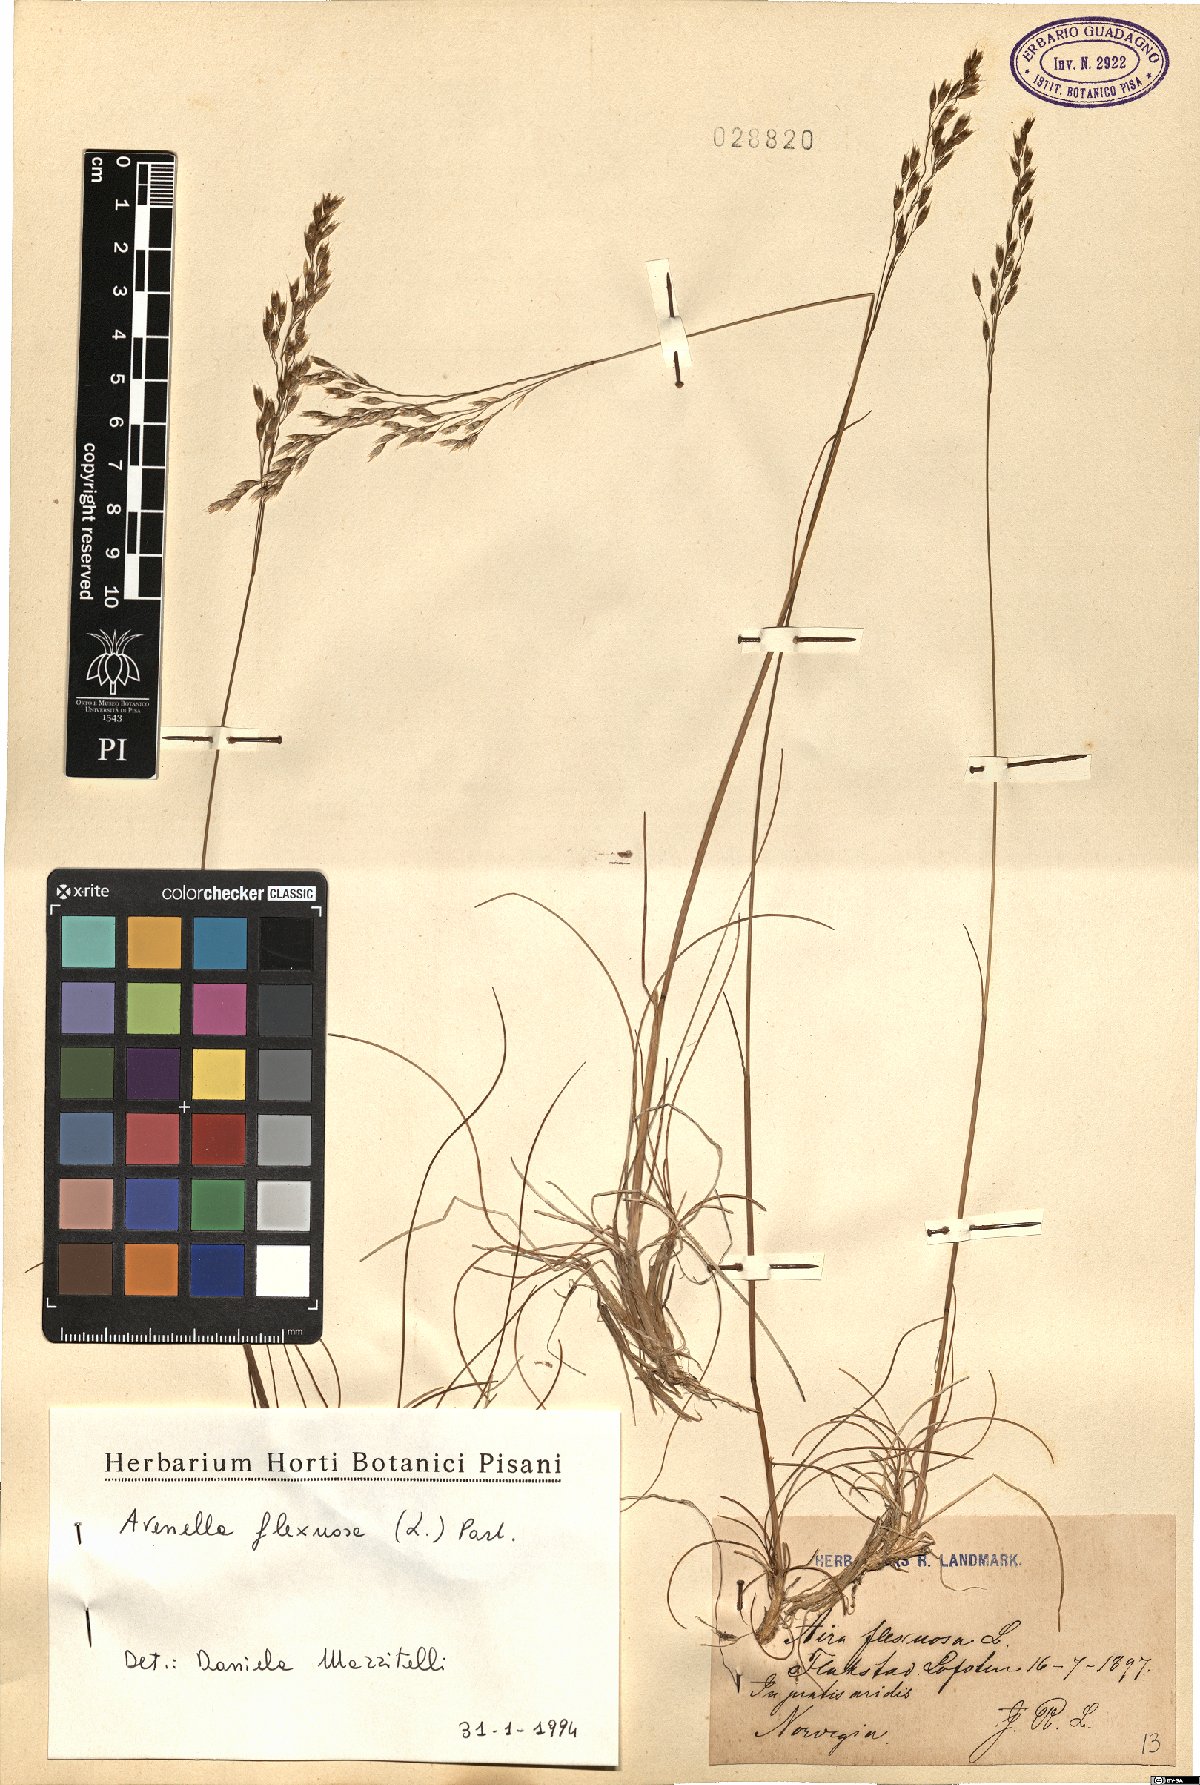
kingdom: Plantae
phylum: Tracheophyta
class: Liliopsida
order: Poales
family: Poaceae
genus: Avenella
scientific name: Avenella flexuosa
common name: Wavy hairgrass
